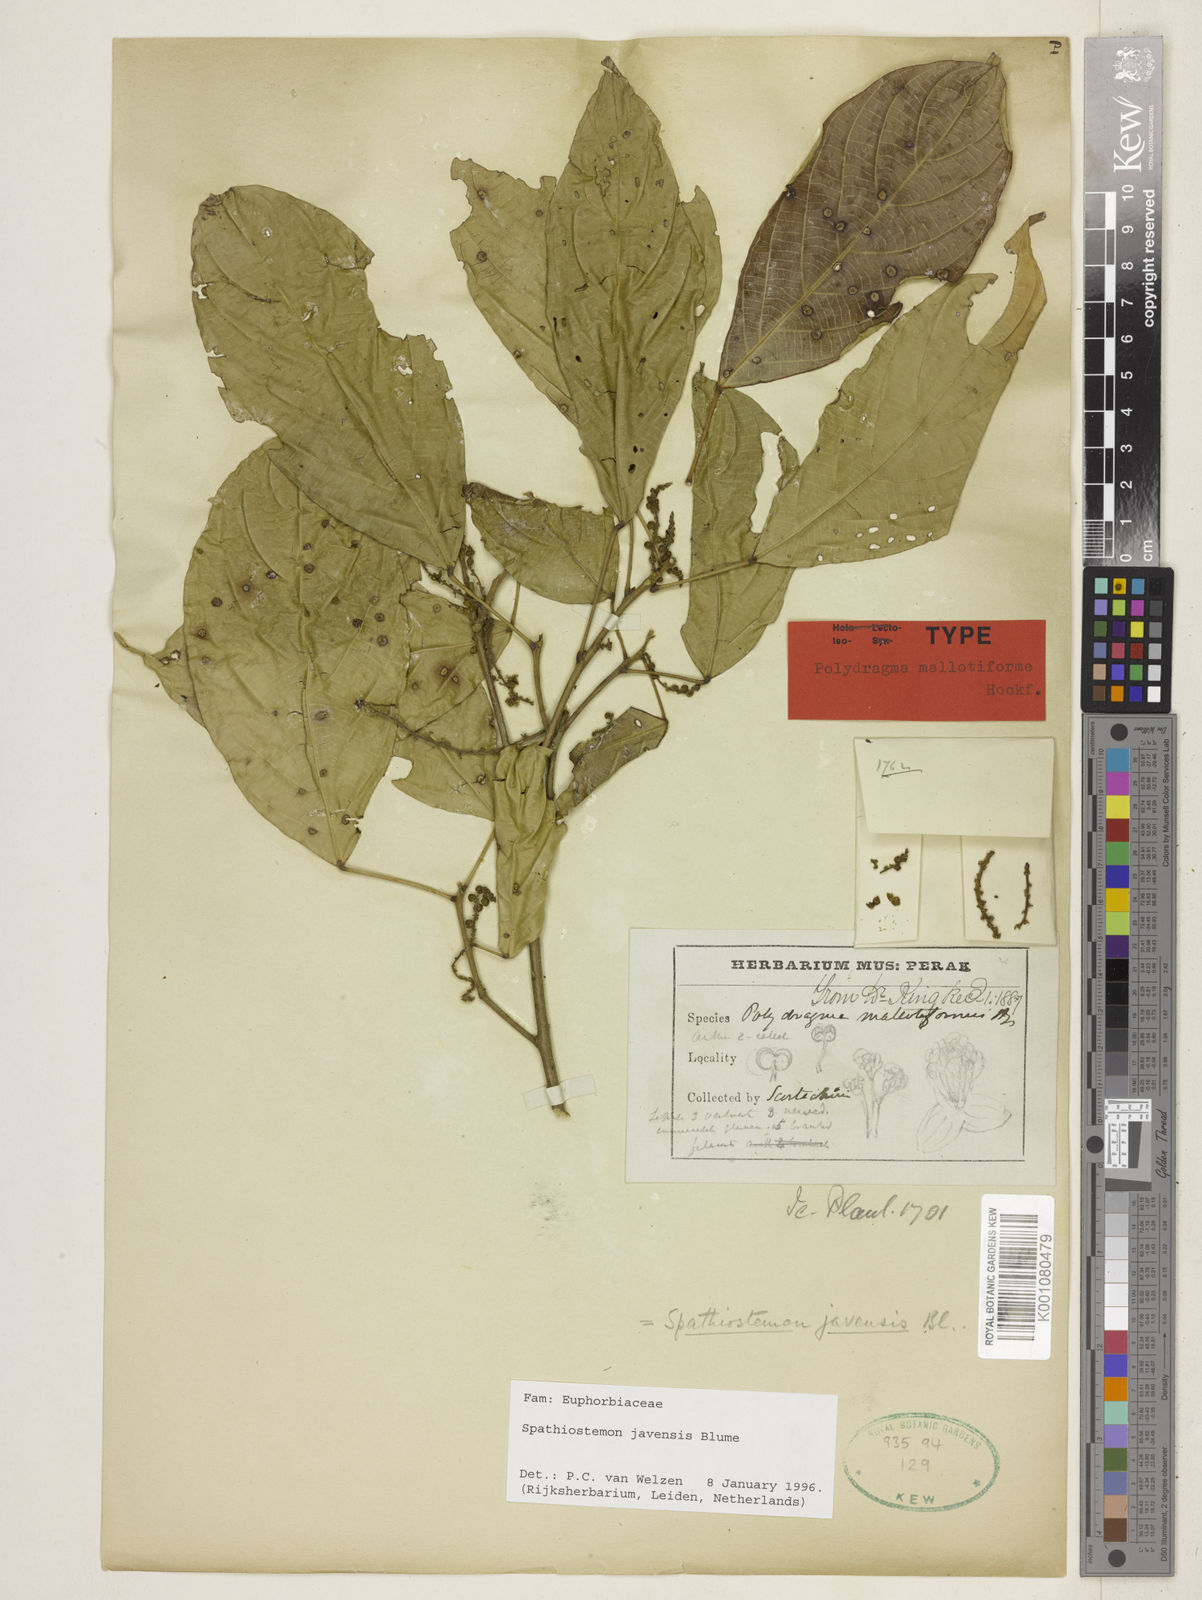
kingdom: Plantae
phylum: Tracheophyta
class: Magnoliopsida
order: Malpighiales
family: Euphorbiaceae
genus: Spathiostemon
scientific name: Spathiostemon javensis
